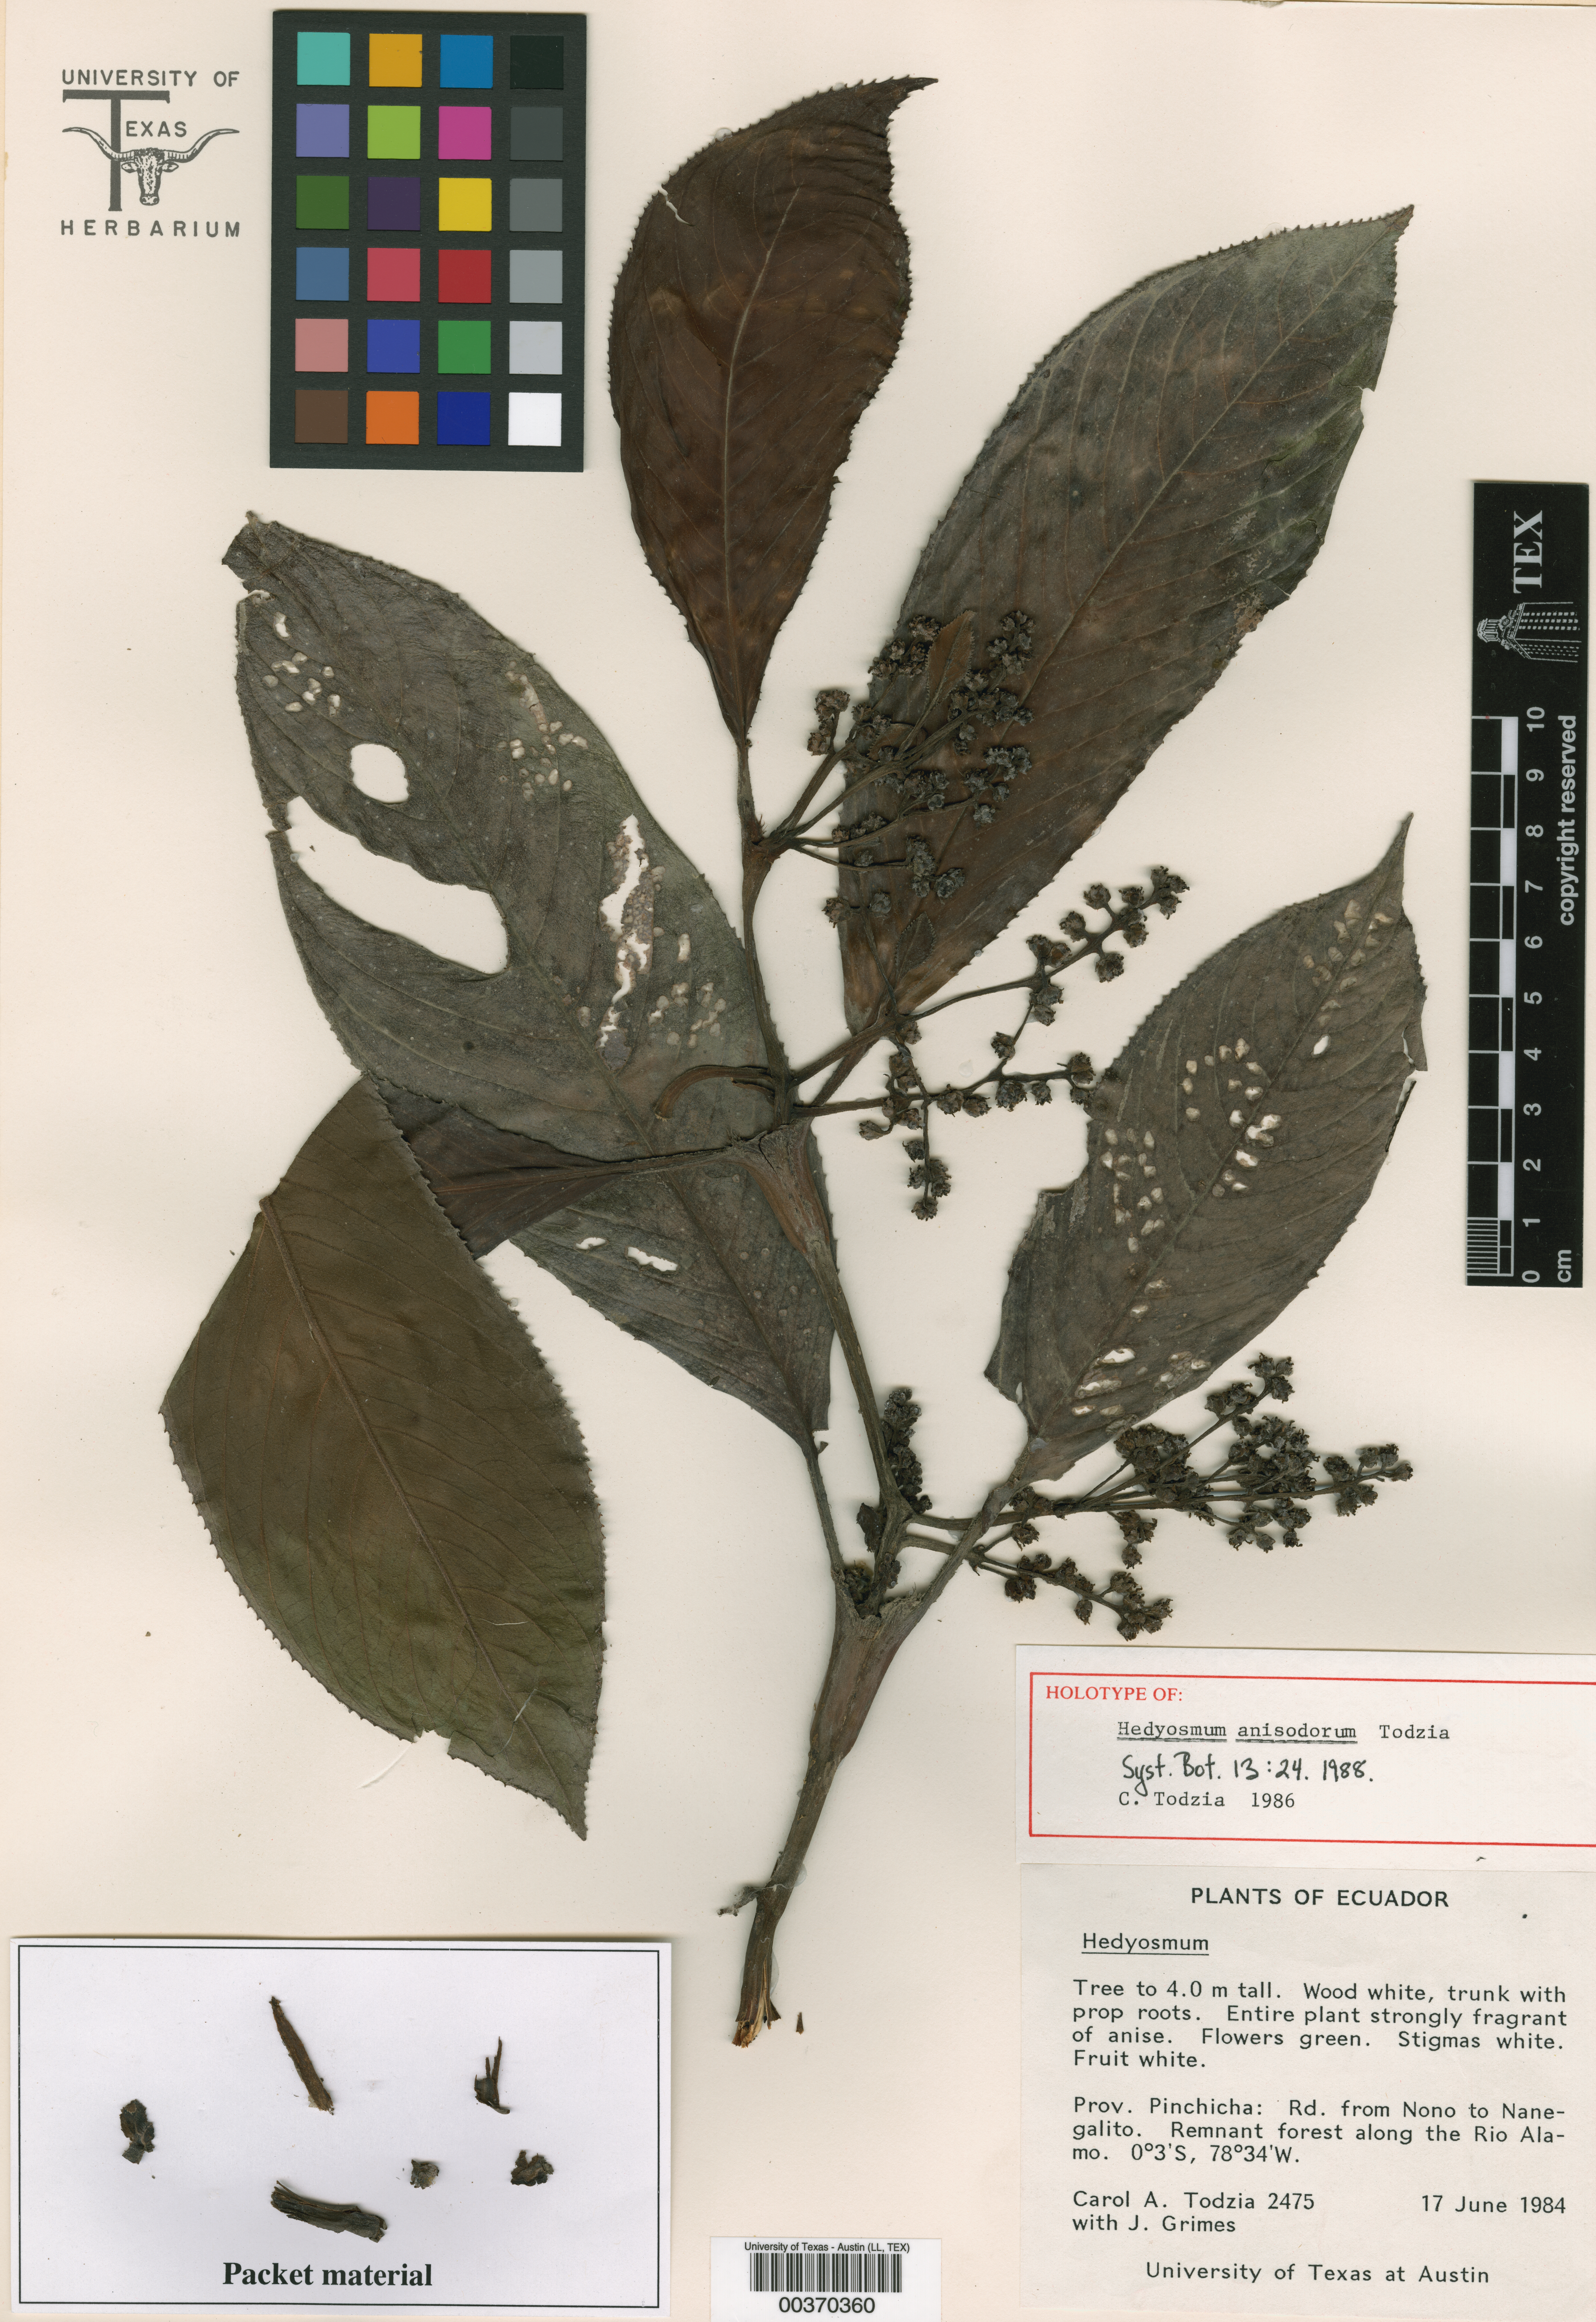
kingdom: Plantae
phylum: Tracheophyta
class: Magnoliopsida
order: Chloranthales
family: Chloranthaceae
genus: Hedyosmum
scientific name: Hedyosmum anisodorum
